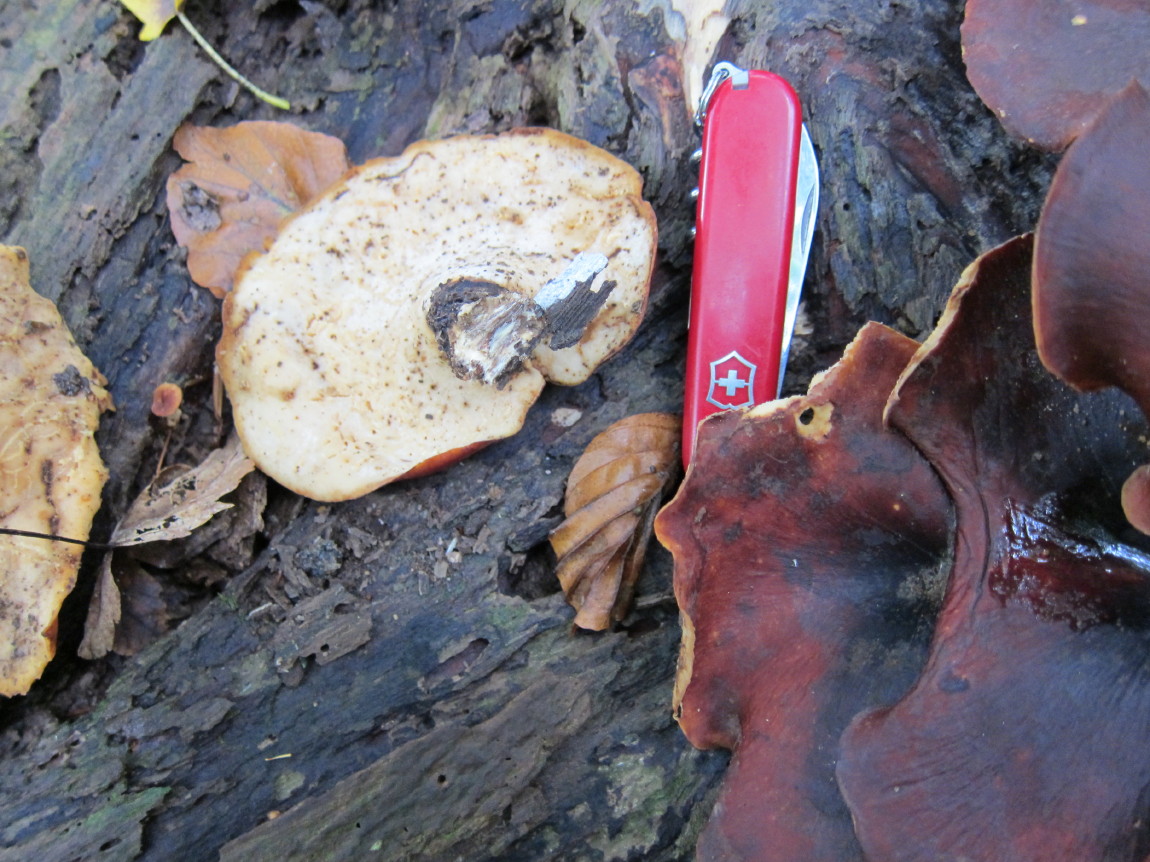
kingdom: Fungi
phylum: Basidiomycota
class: Agaricomycetes
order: Polyporales
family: Polyporaceae
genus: Picipes
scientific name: Picipes badius
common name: kastaniebrun stilkporesvamp
